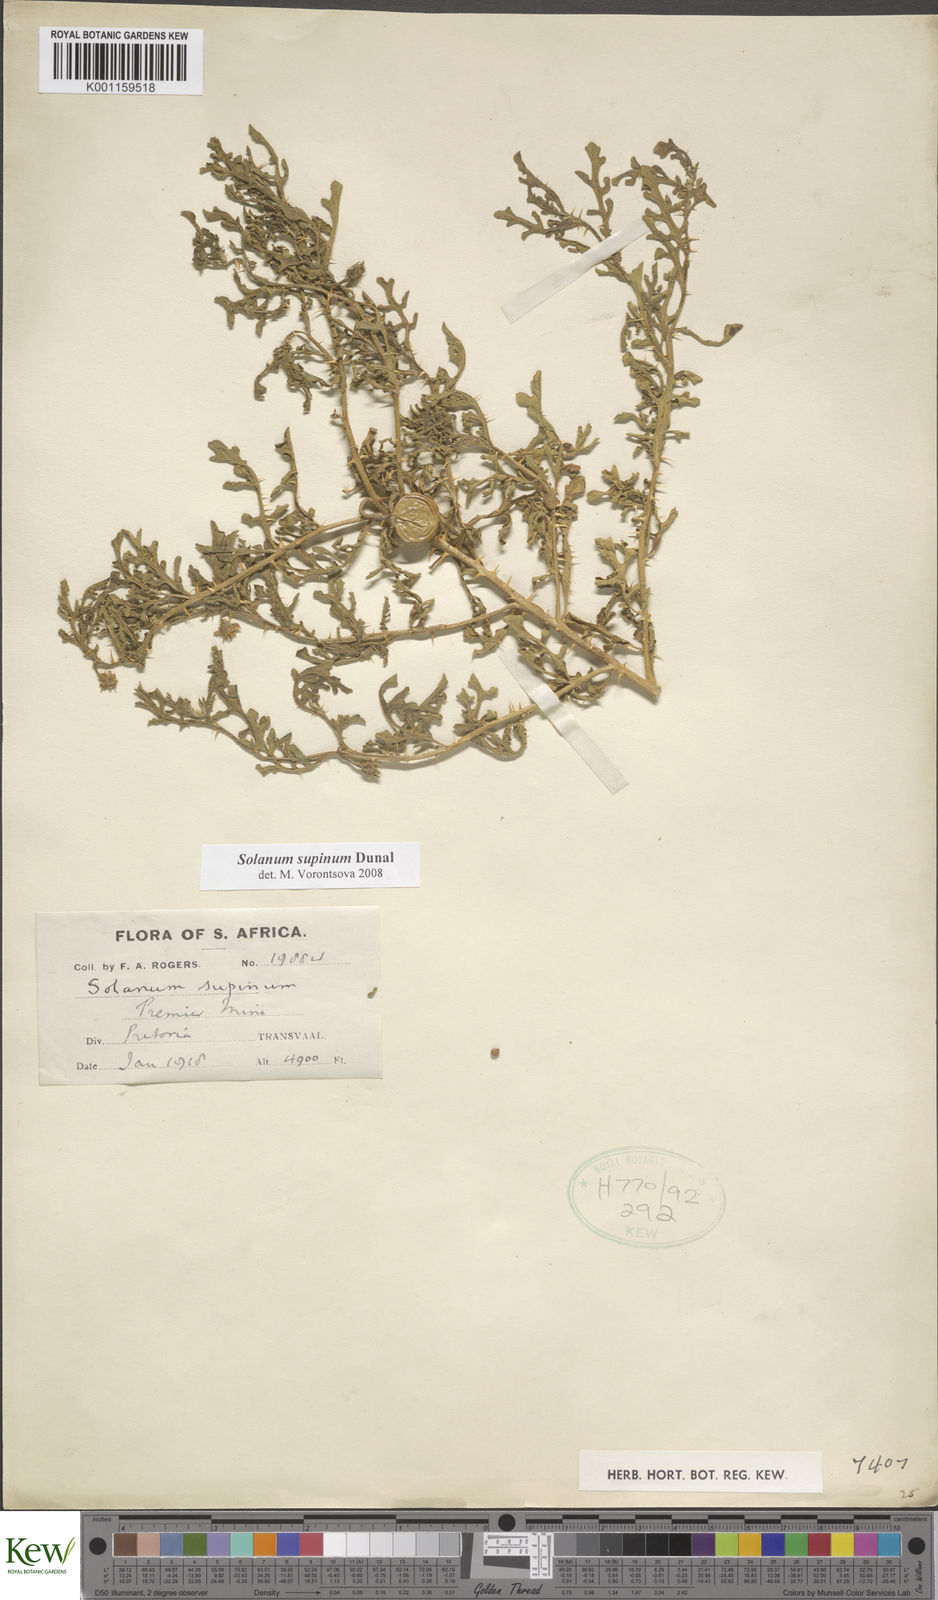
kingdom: Plantae
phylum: Tracheophyta
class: Magnoliopsida
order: Solanales
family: Solanaceae
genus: Solanum
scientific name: Solanum supinum
